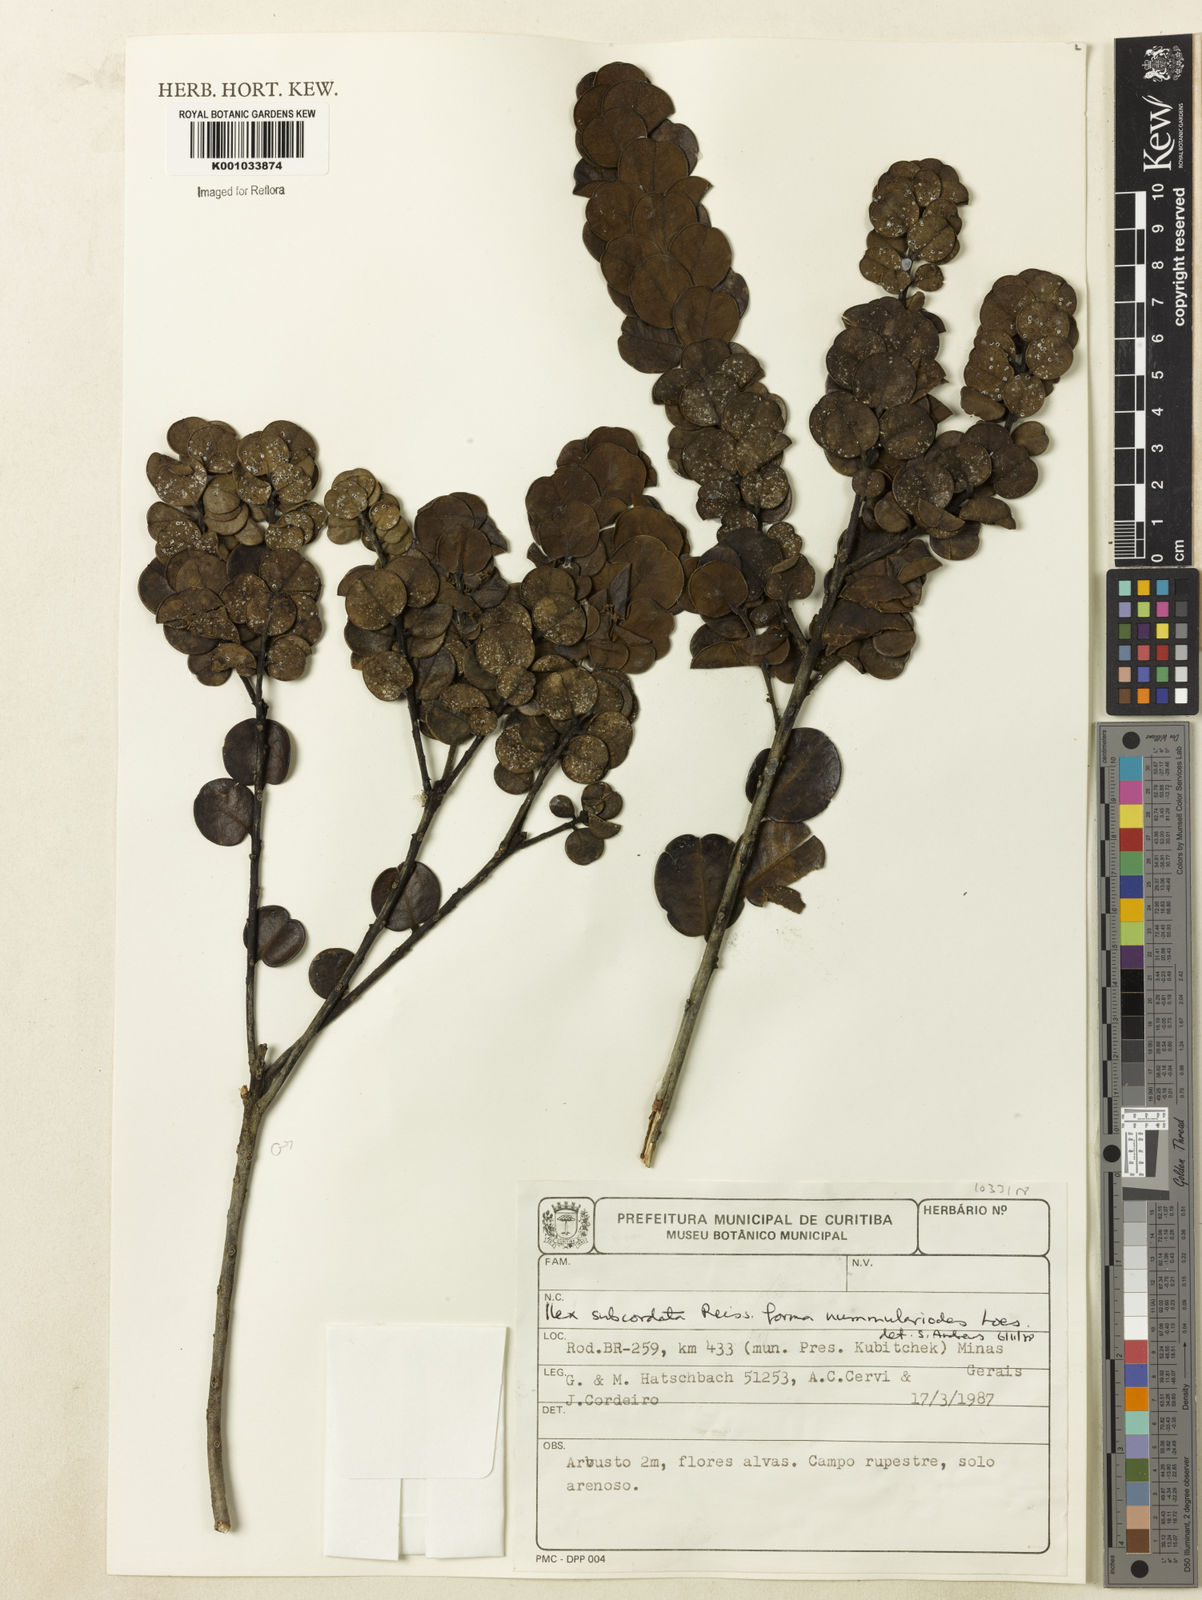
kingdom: Plantae
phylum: Tracheophyta
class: Magnoliopsida
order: Aquifoliales
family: Aquifoliaceae
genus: Ilex
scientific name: Ilex subcordata
